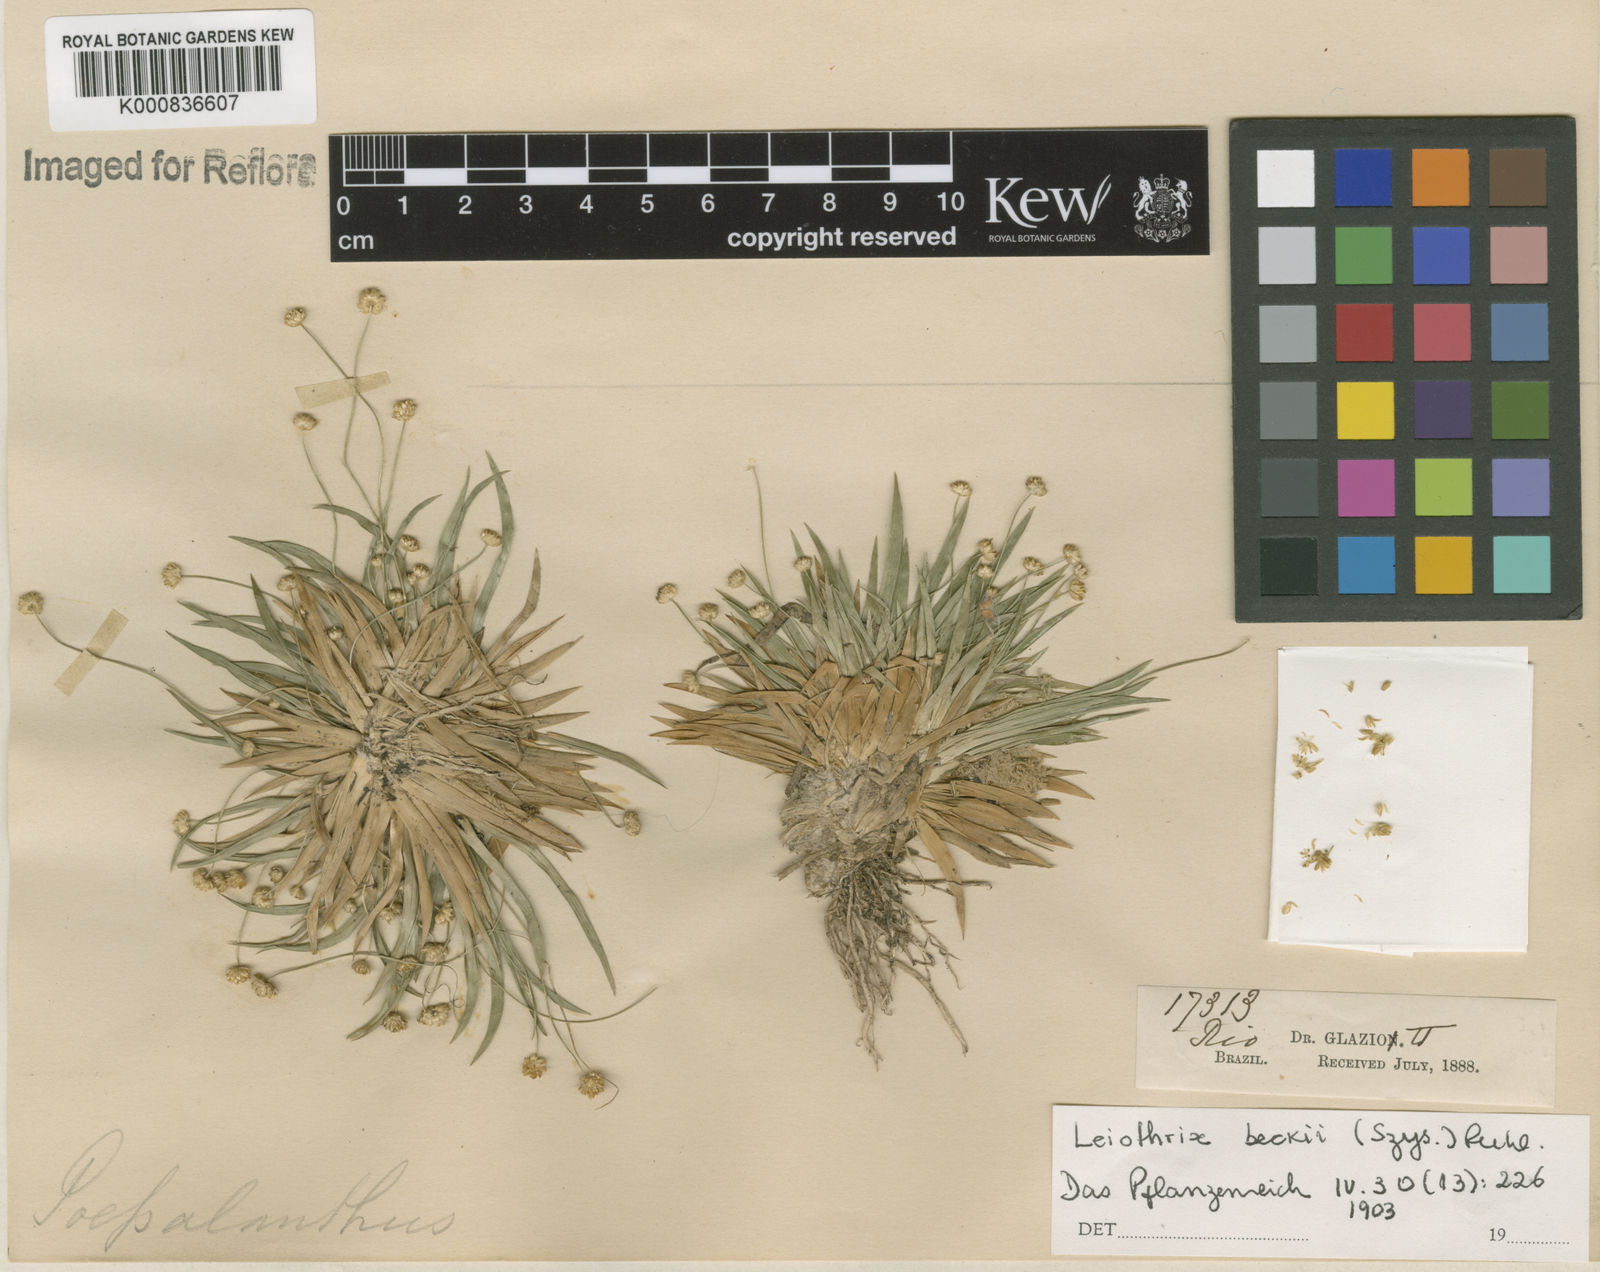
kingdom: Plantae
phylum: Tracheophyta
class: Liliopsida
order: Poales
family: Eriocaulaceae
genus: Leiothrix
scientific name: Leiothrix beckii
